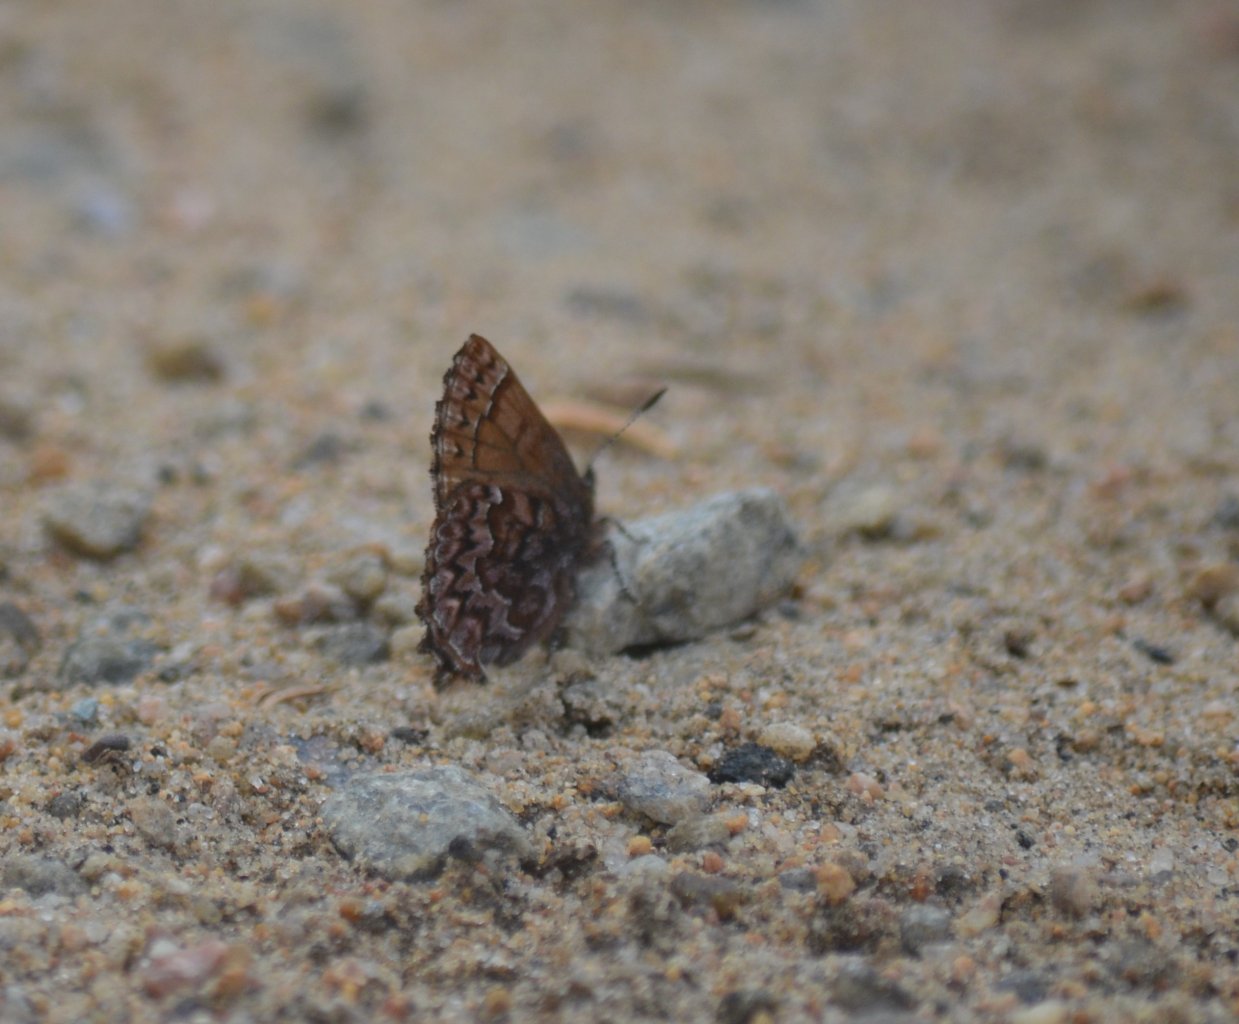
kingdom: Animalia
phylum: Arthropoda
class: Insecta
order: Lepidoptera
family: Lycaenidae
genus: Incisalia
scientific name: Incisalia niphon
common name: Eastern Pine Elfin
